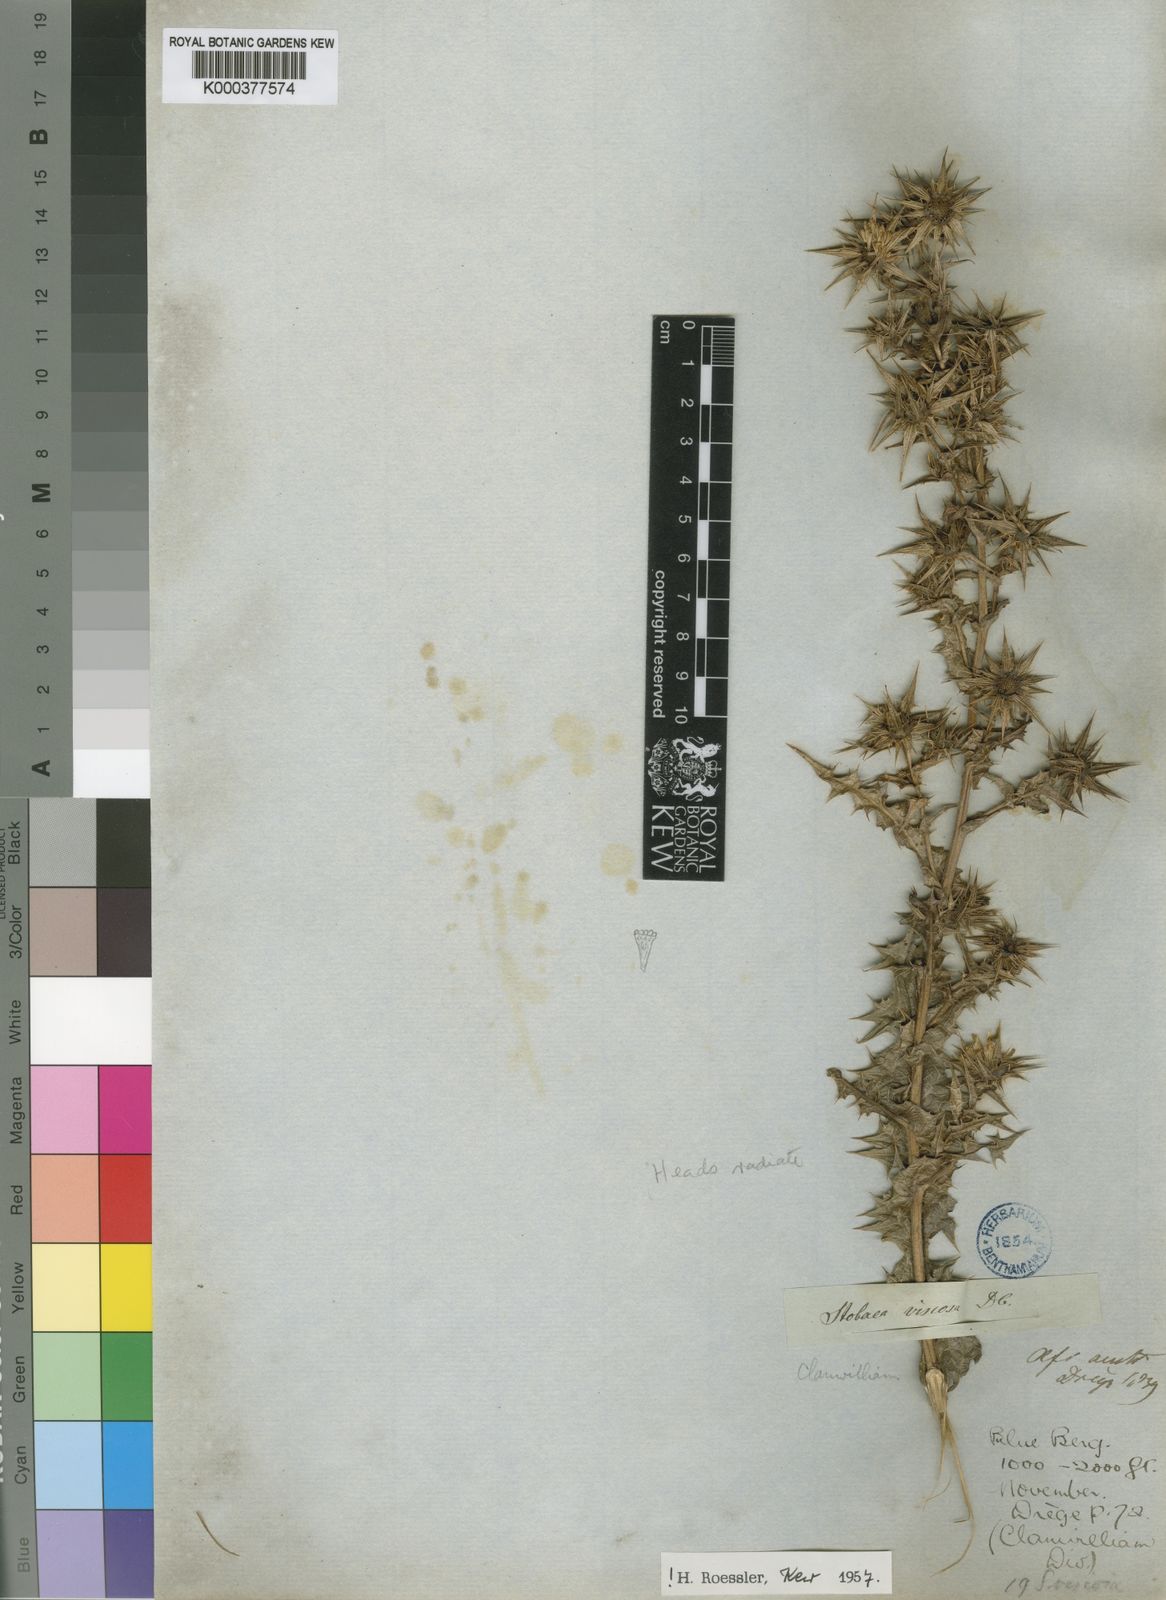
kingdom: Plantae
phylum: Tracheophyta
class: Magnoliopsida
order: Asterales
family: Asteraceae
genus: Berkheya
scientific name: Berkheya viscosa
